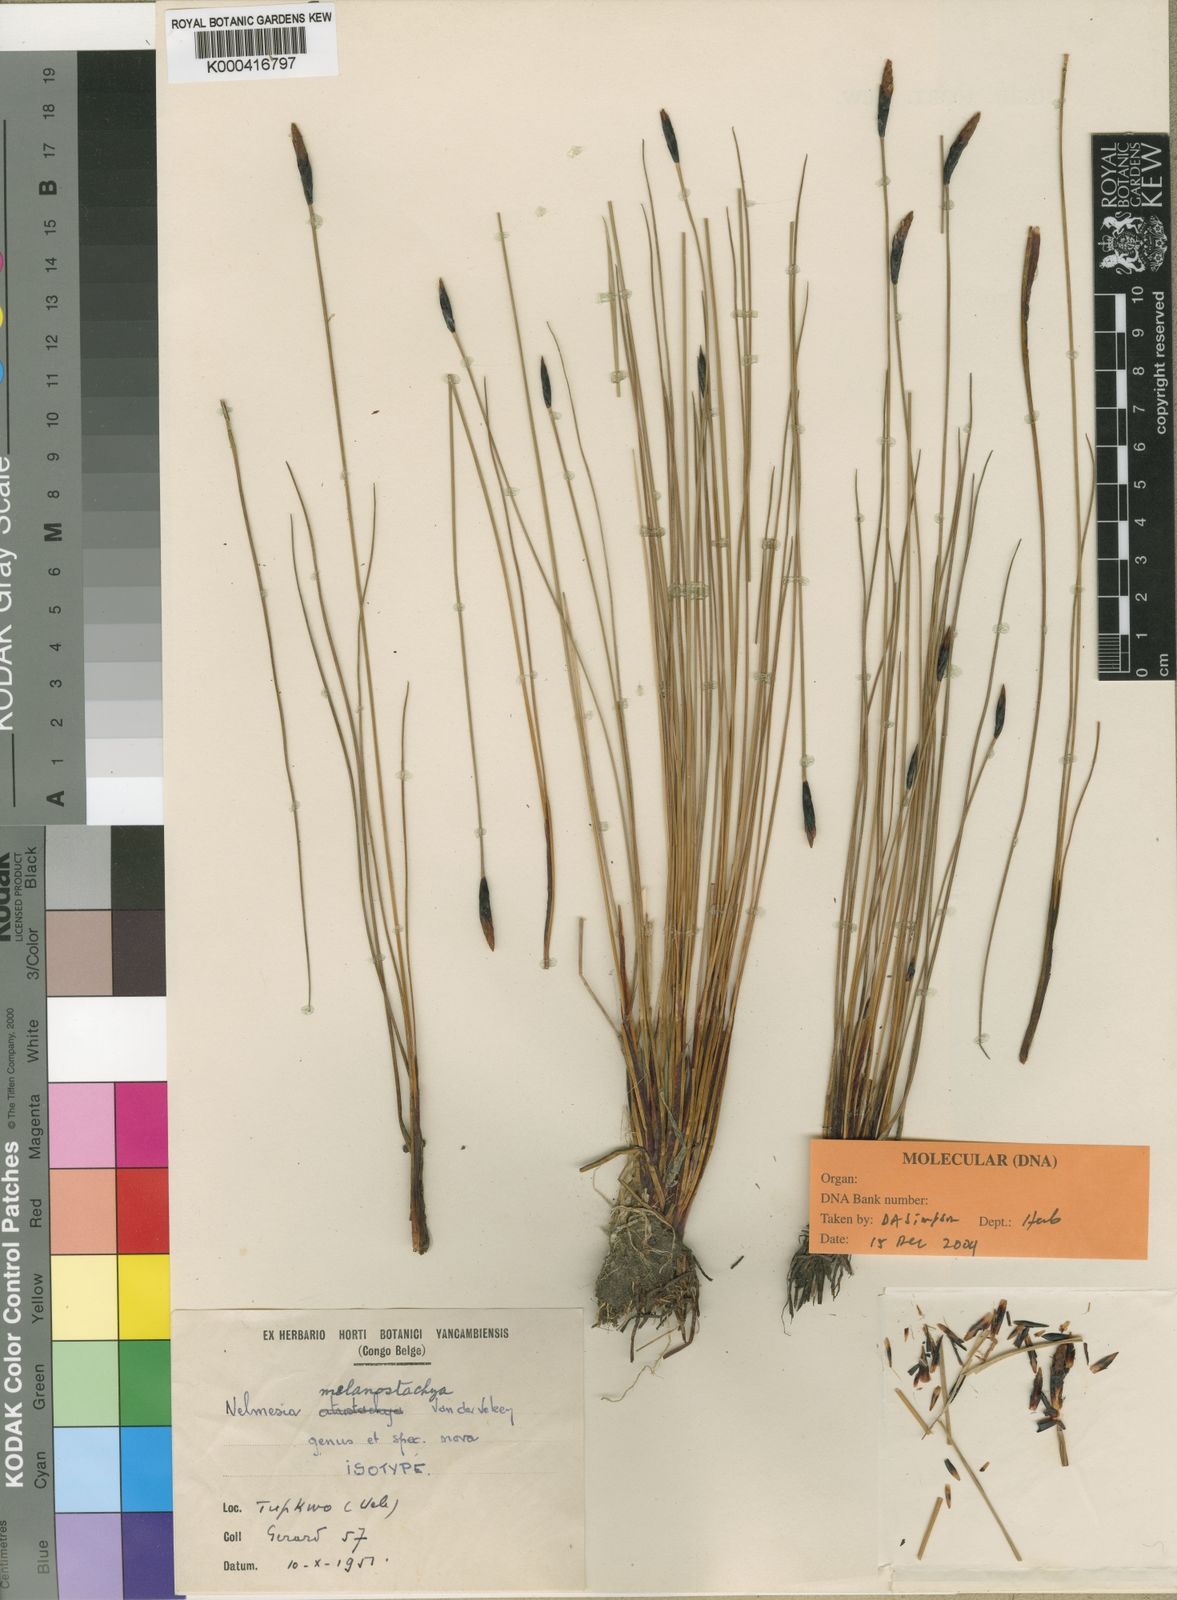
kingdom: Plantae
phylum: Tracheophyta
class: Liliopsida
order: Poales
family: Cyperaceae
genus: Nelmesia
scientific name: Nelmesia melanostachya
